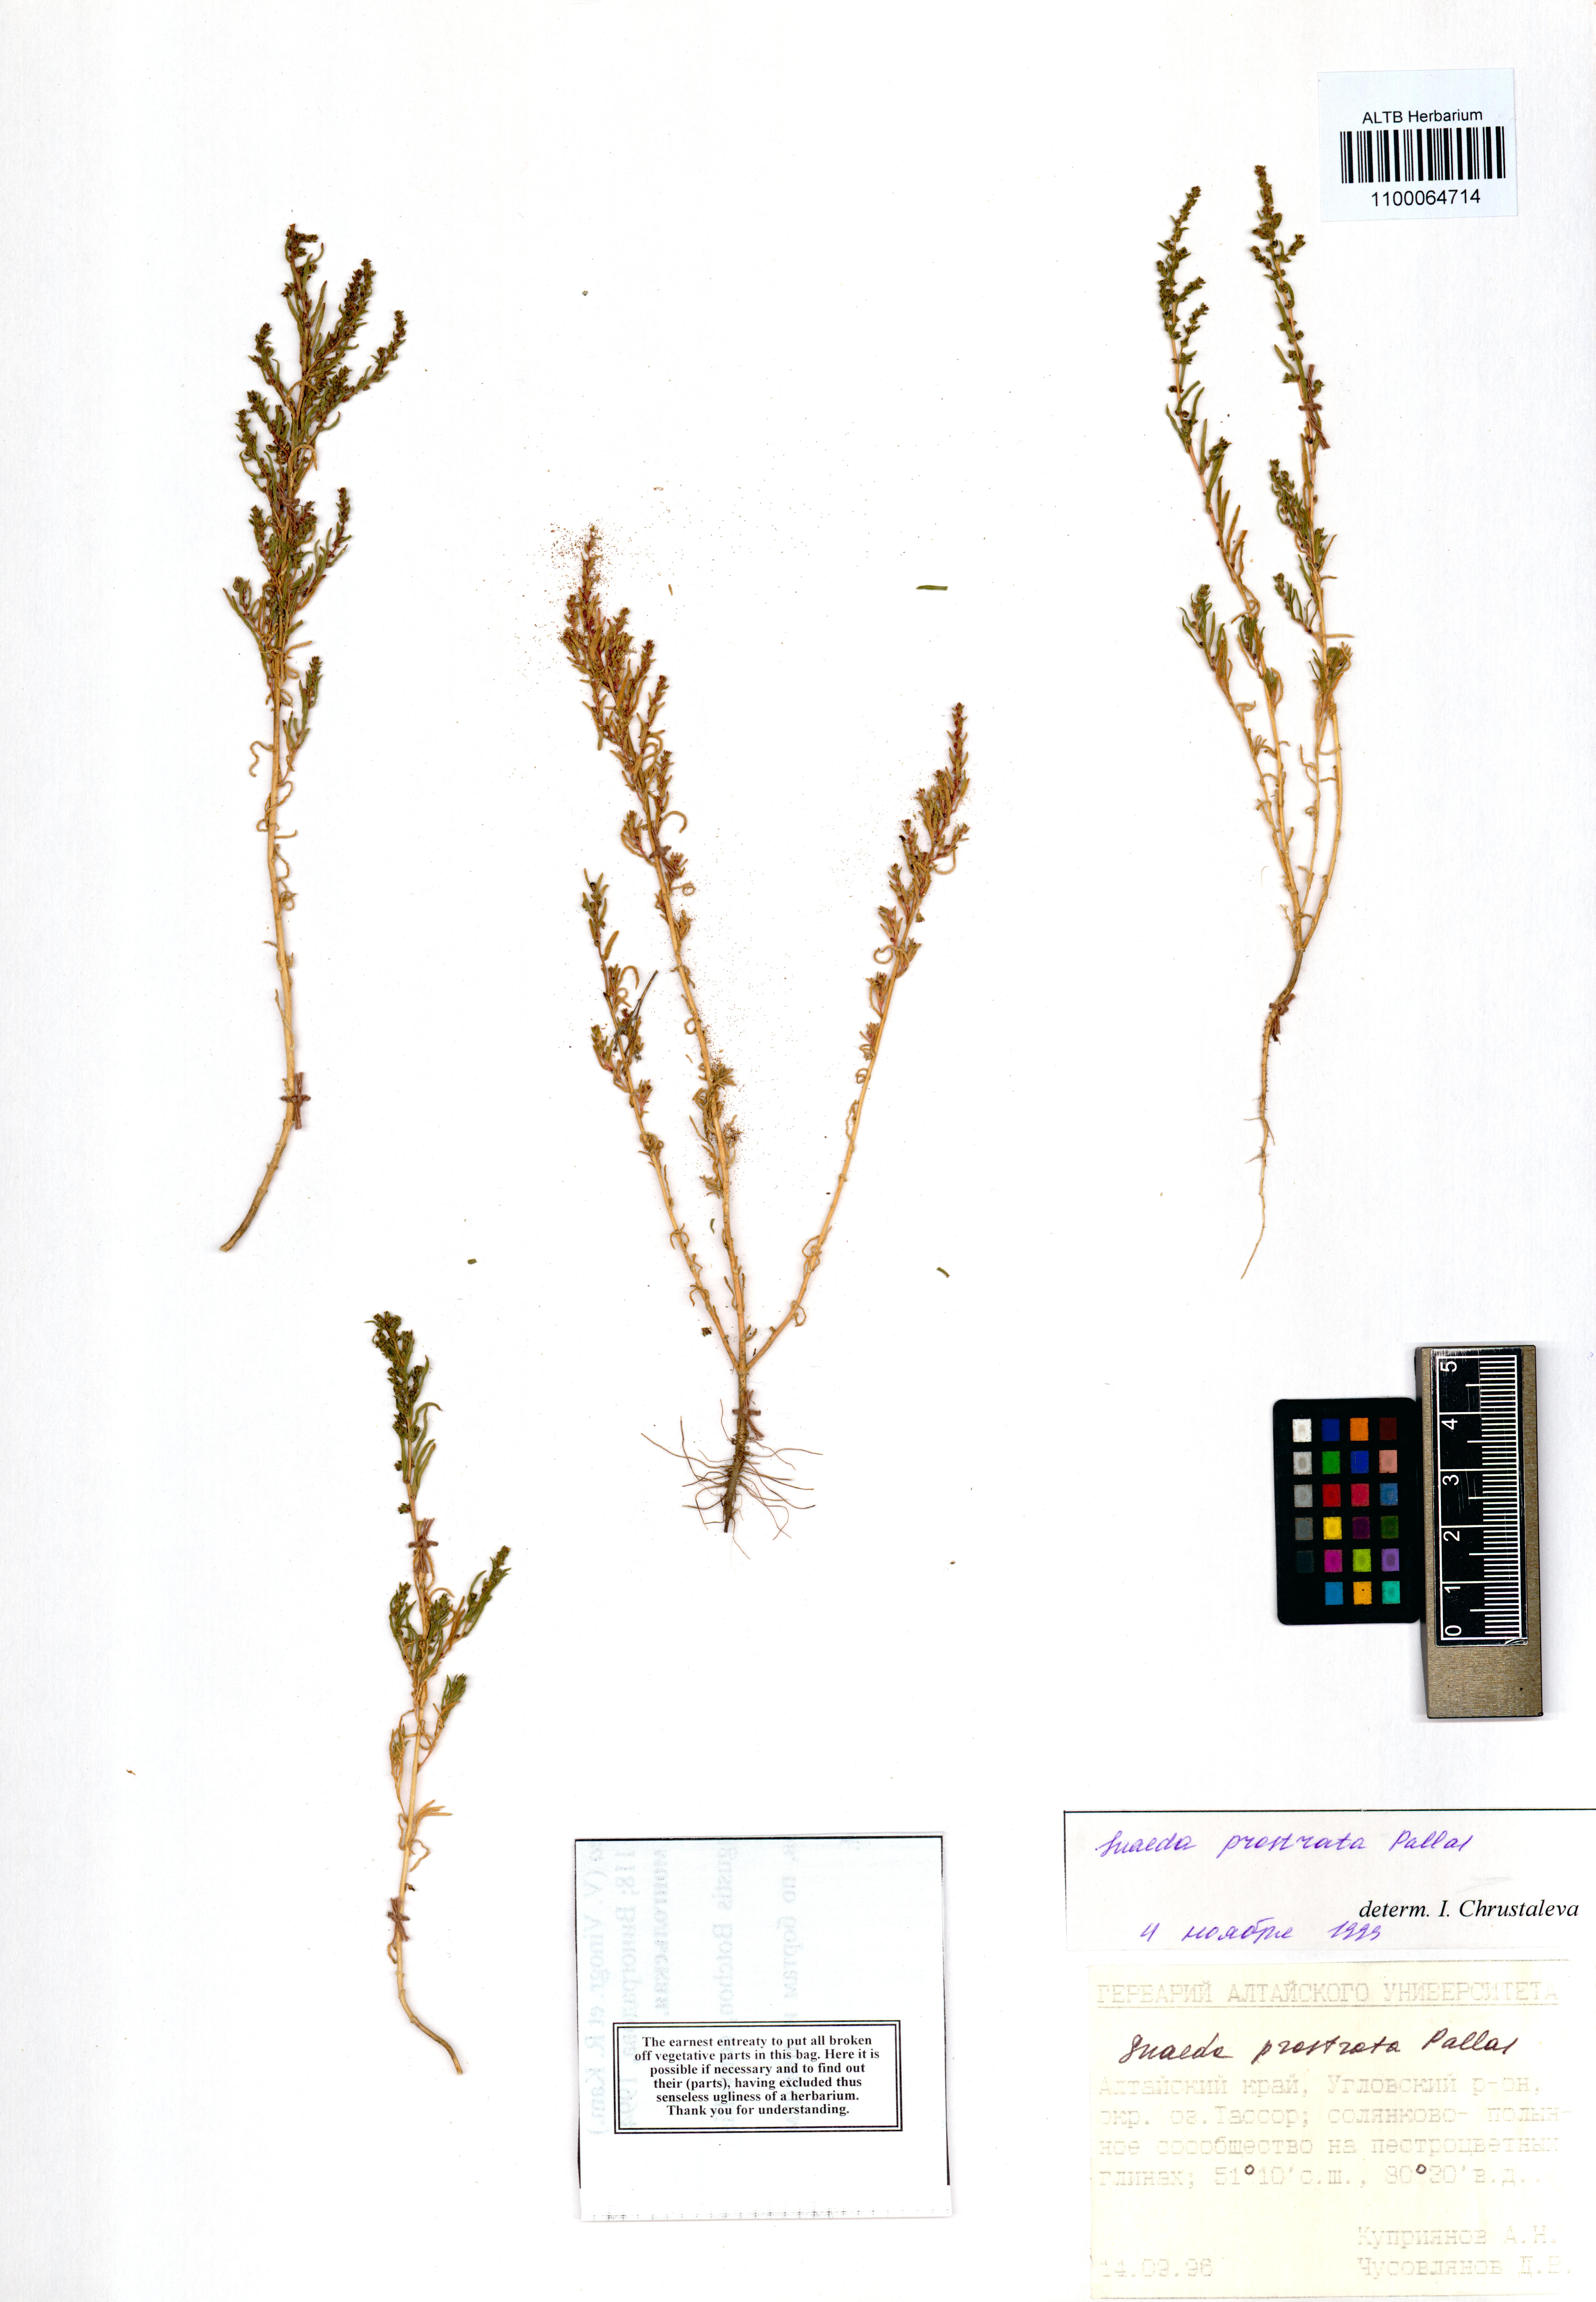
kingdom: Plantae
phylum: Tracheophyta
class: Magnoliopsida
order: Caryophyllales
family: Amaranthaceae
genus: Suaeda
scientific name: Suaeda prostrata
